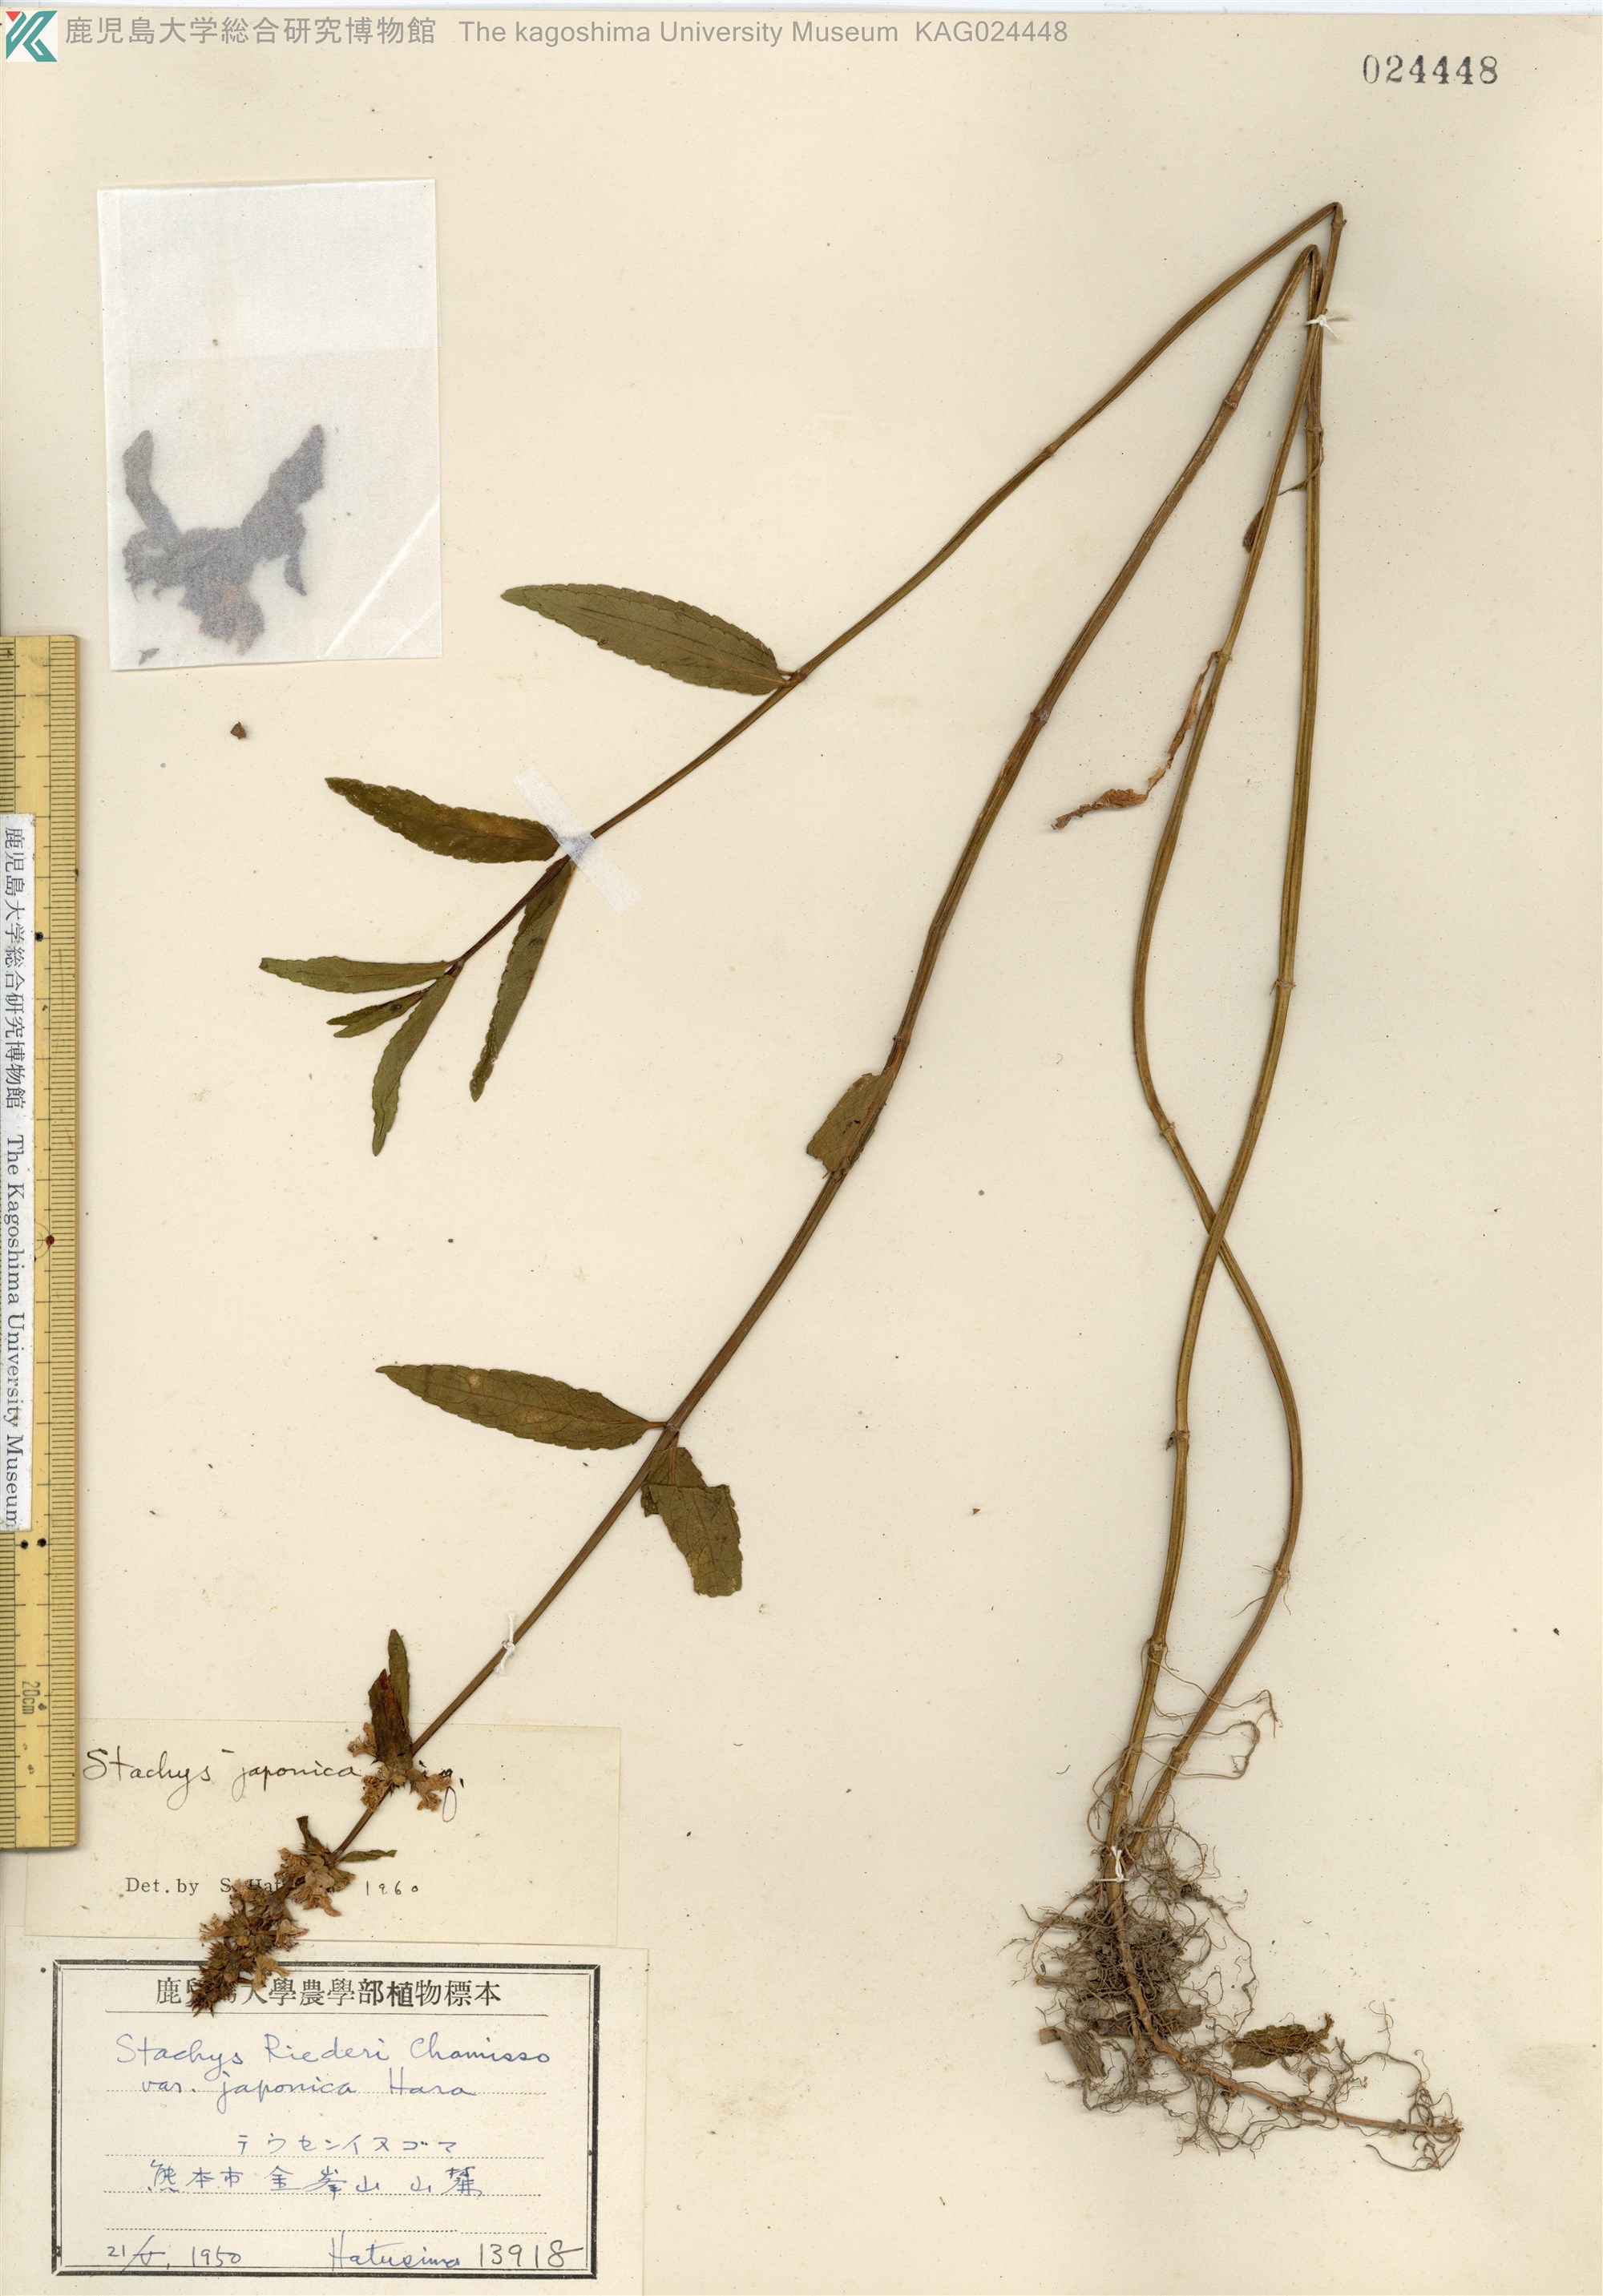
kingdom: Plantae
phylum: Tracheophyta
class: Magnoliopsida
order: Lamiales
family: Lamiaceae
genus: Stachys
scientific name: Stachys aspera
